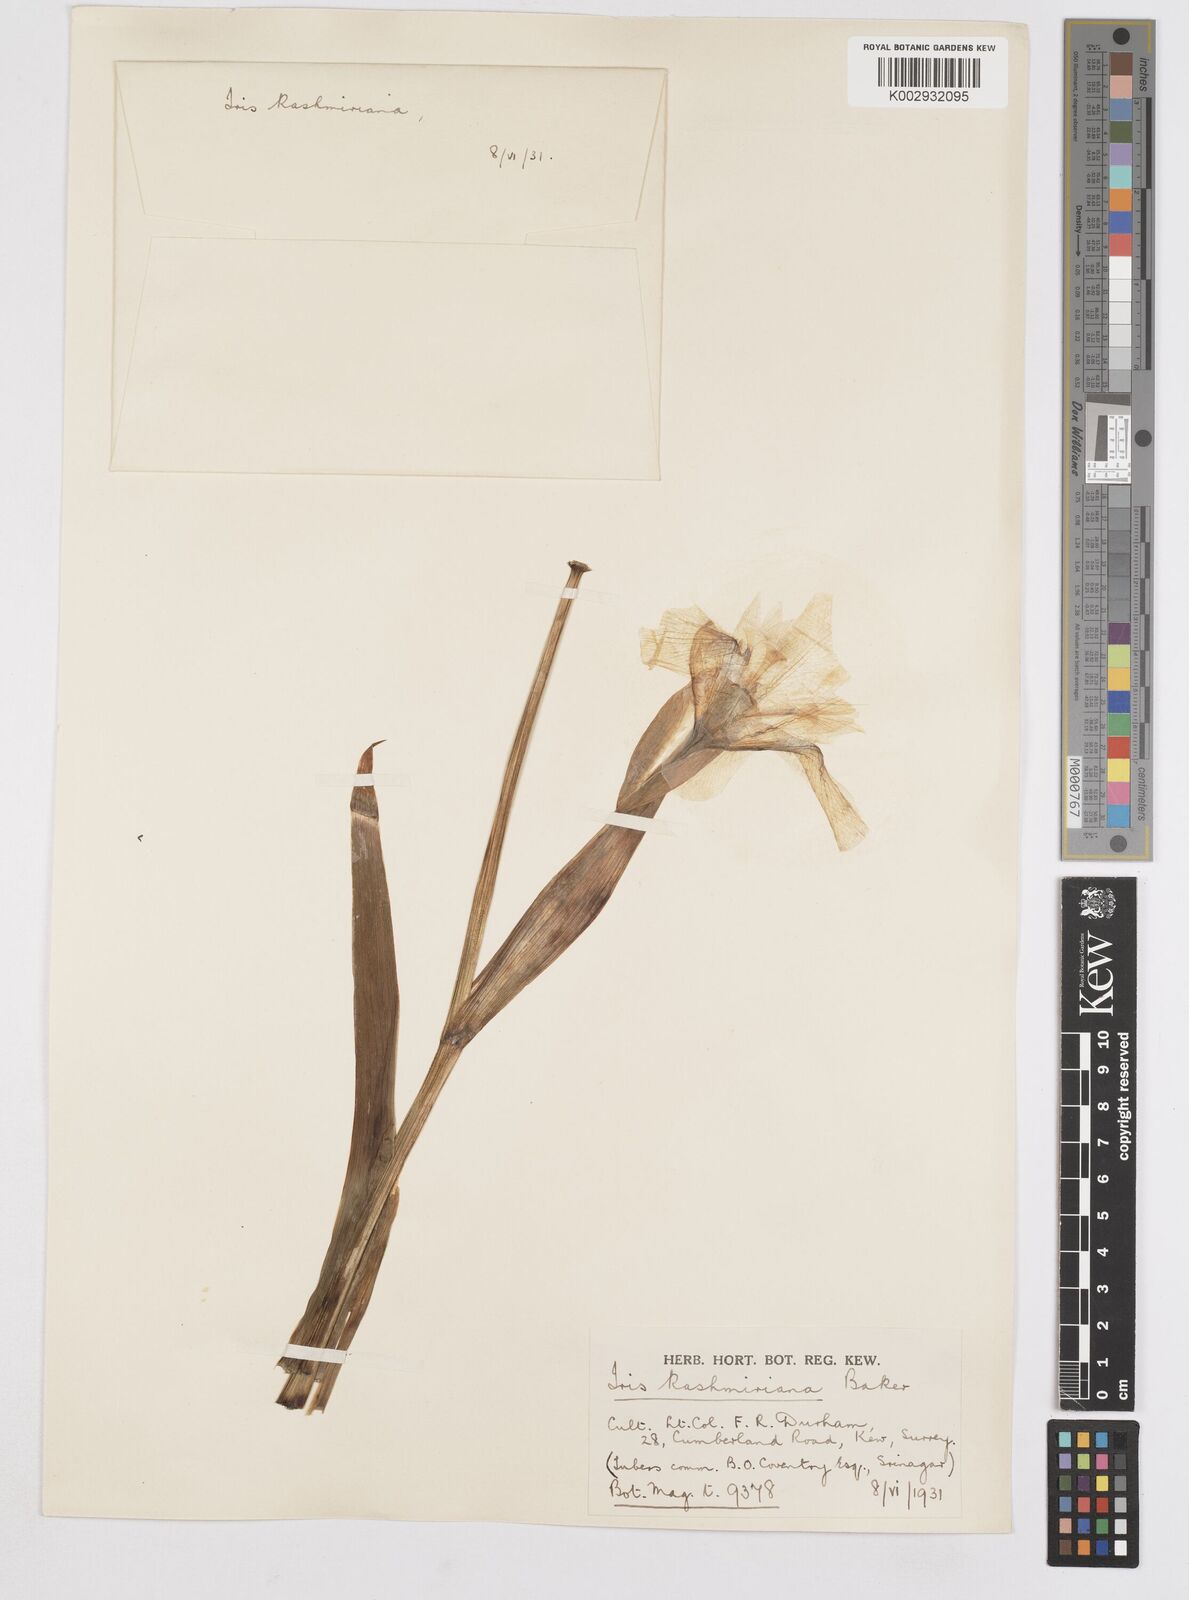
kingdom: Plantae
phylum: Tracheophyta
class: Liliopsida
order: Asparagales
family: Iridaceae
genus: Iris
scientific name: Iris kashmiriana
